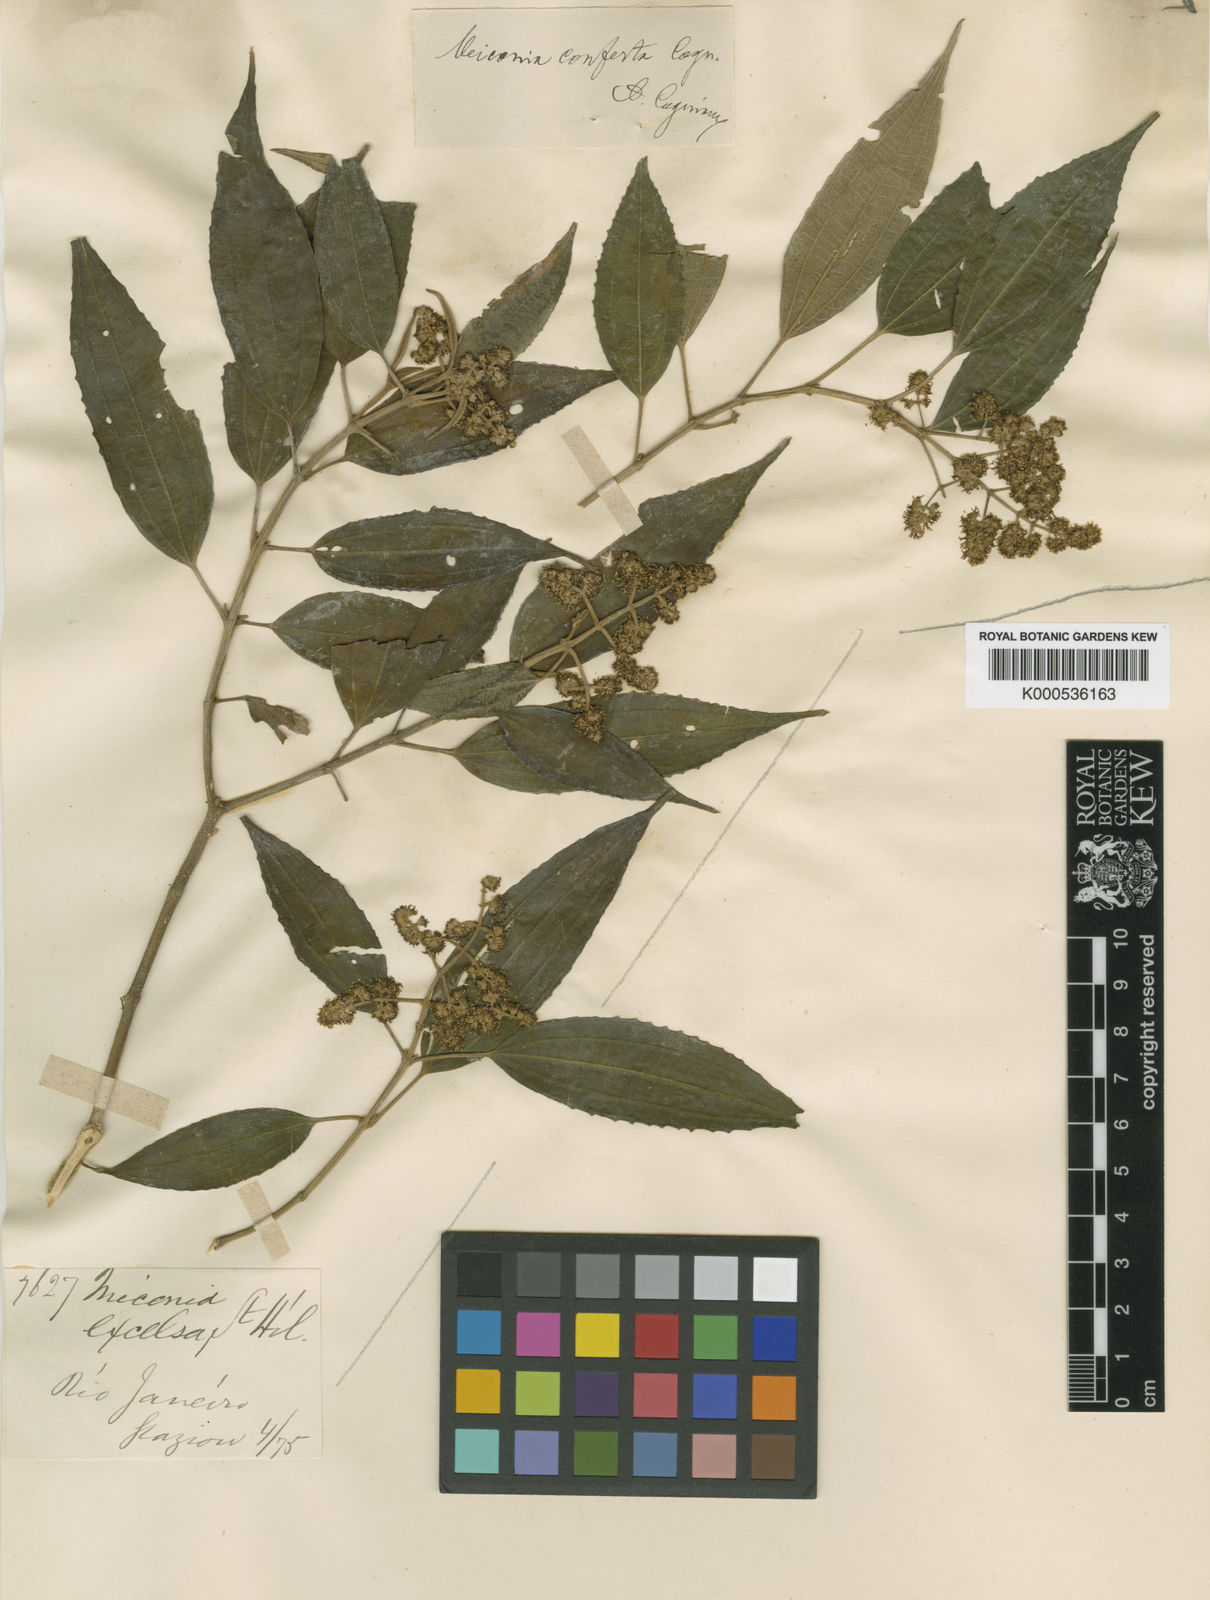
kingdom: Plantae
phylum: Tracheophyta
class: Magnoliopsida
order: Myrtales
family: Melastomataceae
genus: Miconia
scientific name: Miconia inconspicua
